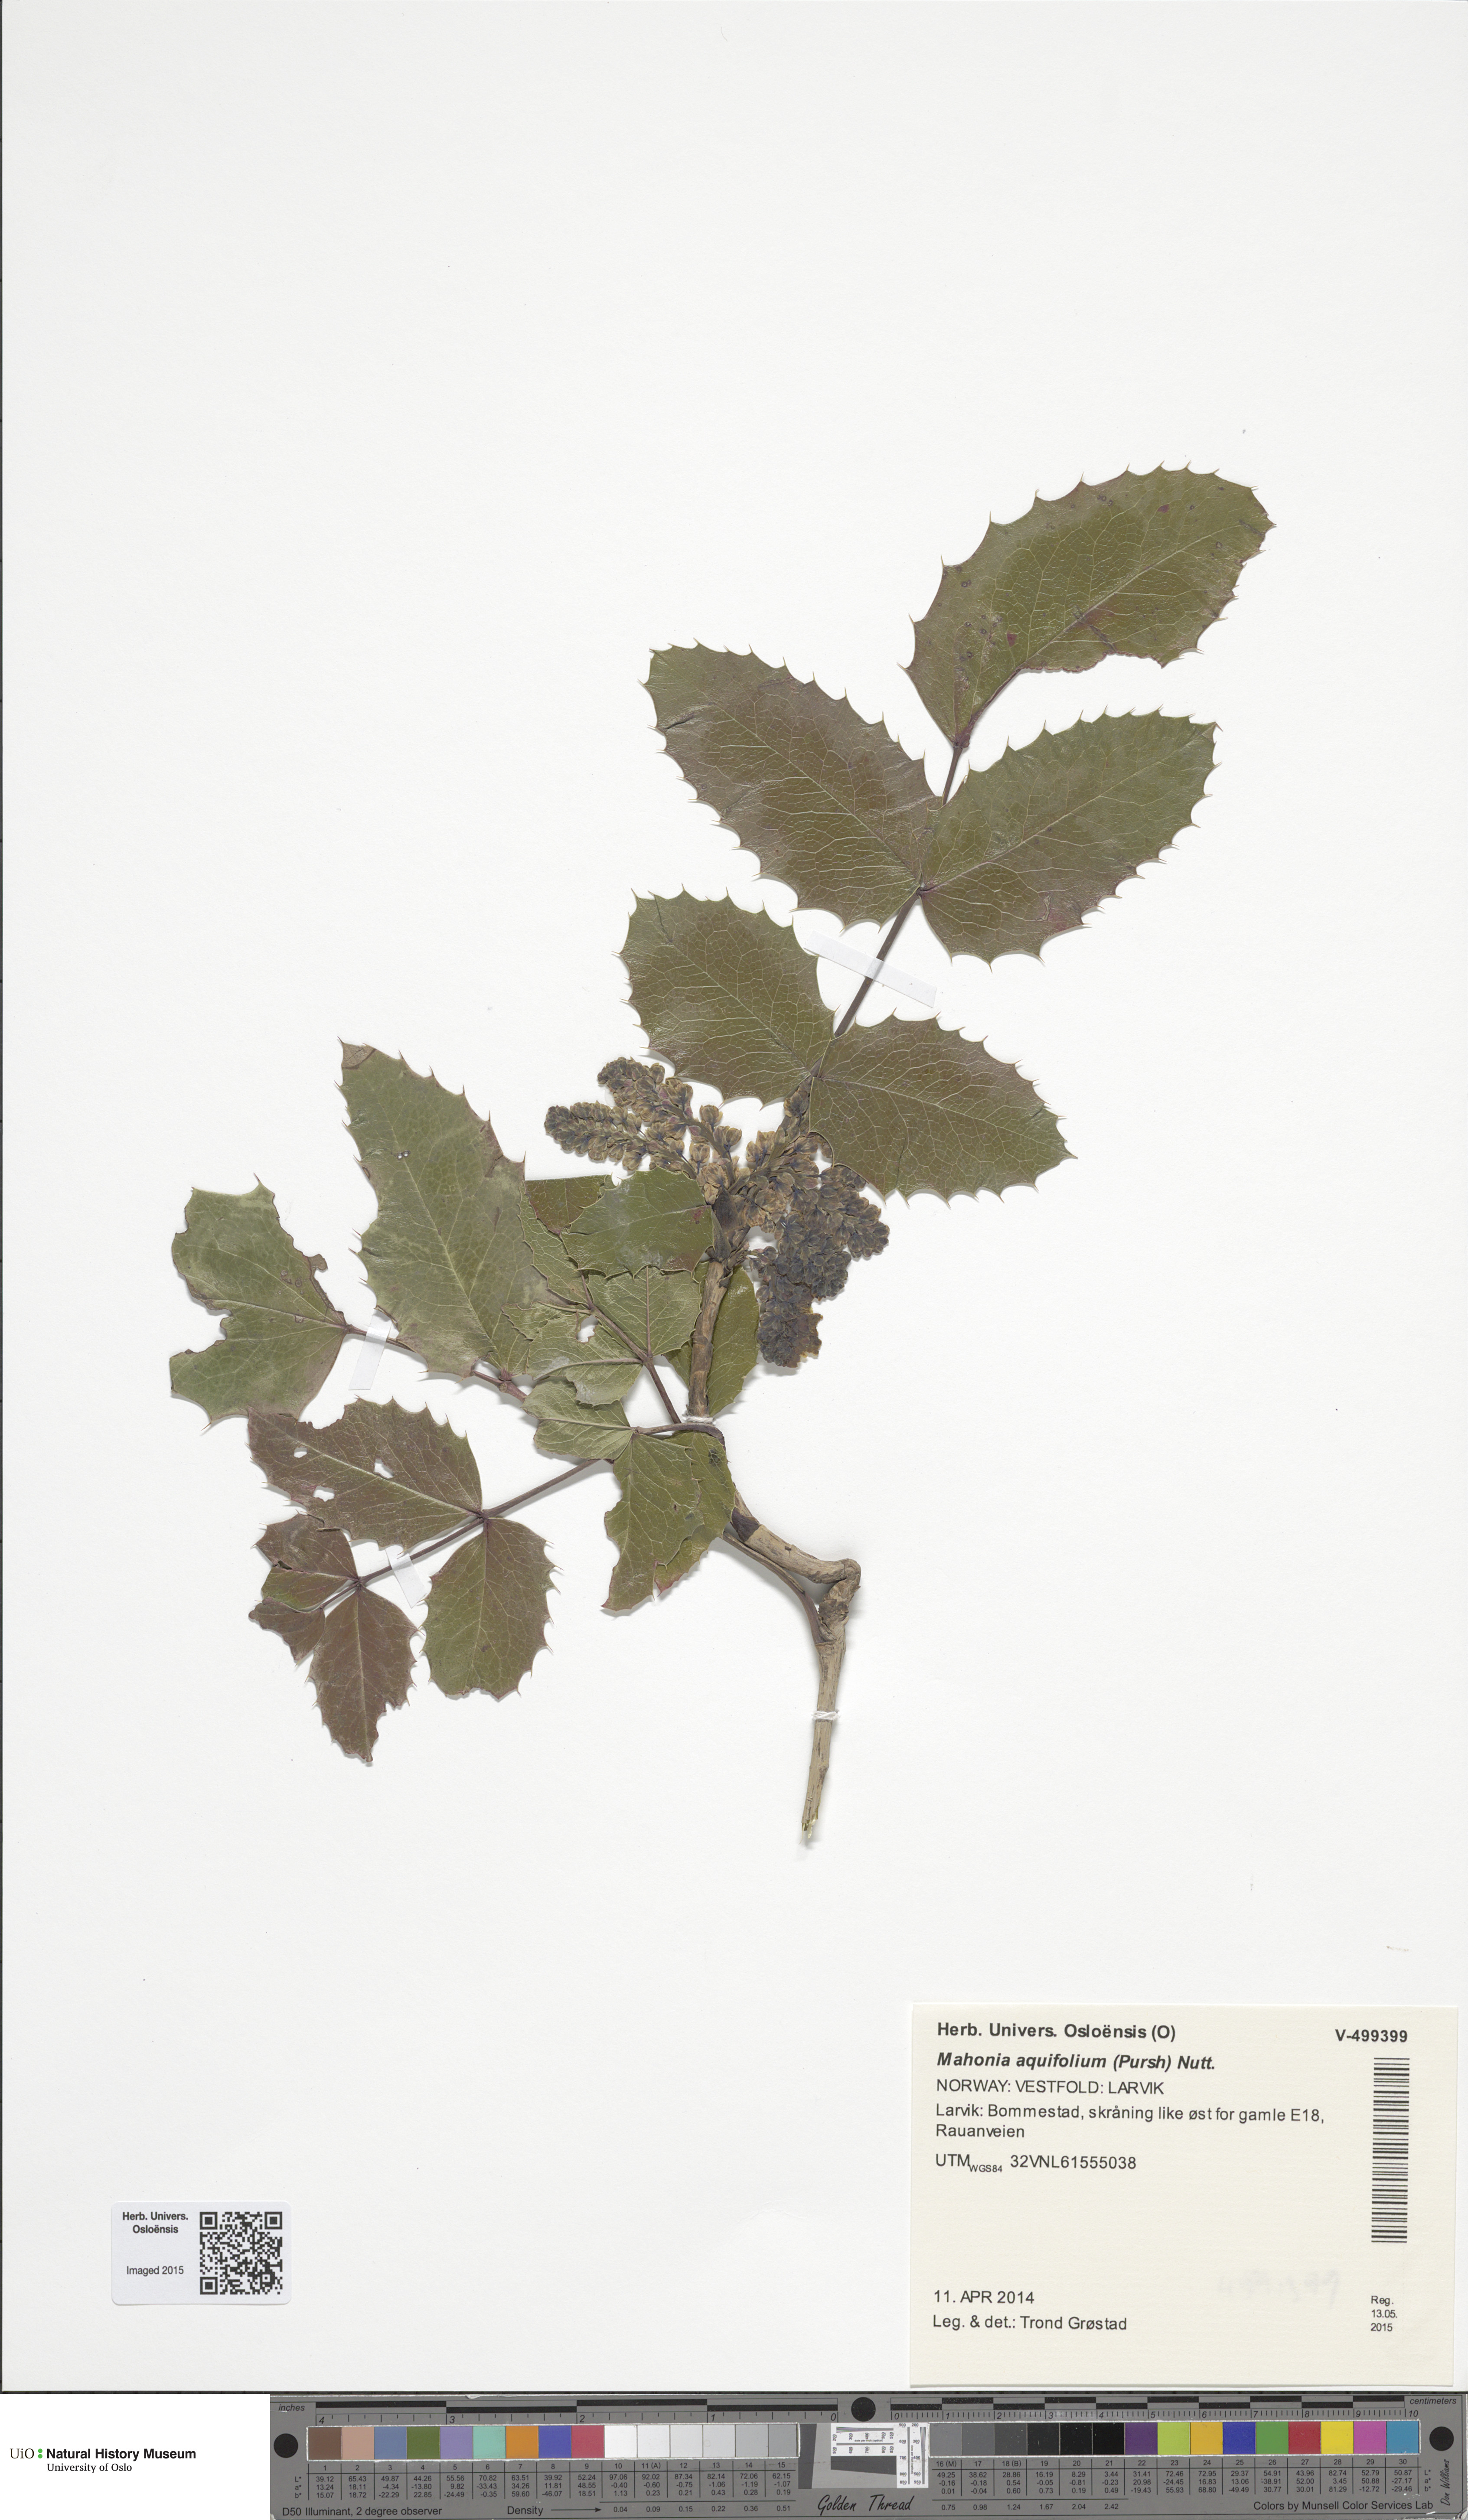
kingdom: Plantae
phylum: Tracheophyta
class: Magnoliopsida
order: Ranunculales
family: Berberidaceae
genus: Mahonia
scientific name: Mahonia aquifolium
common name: Oregon-grape
